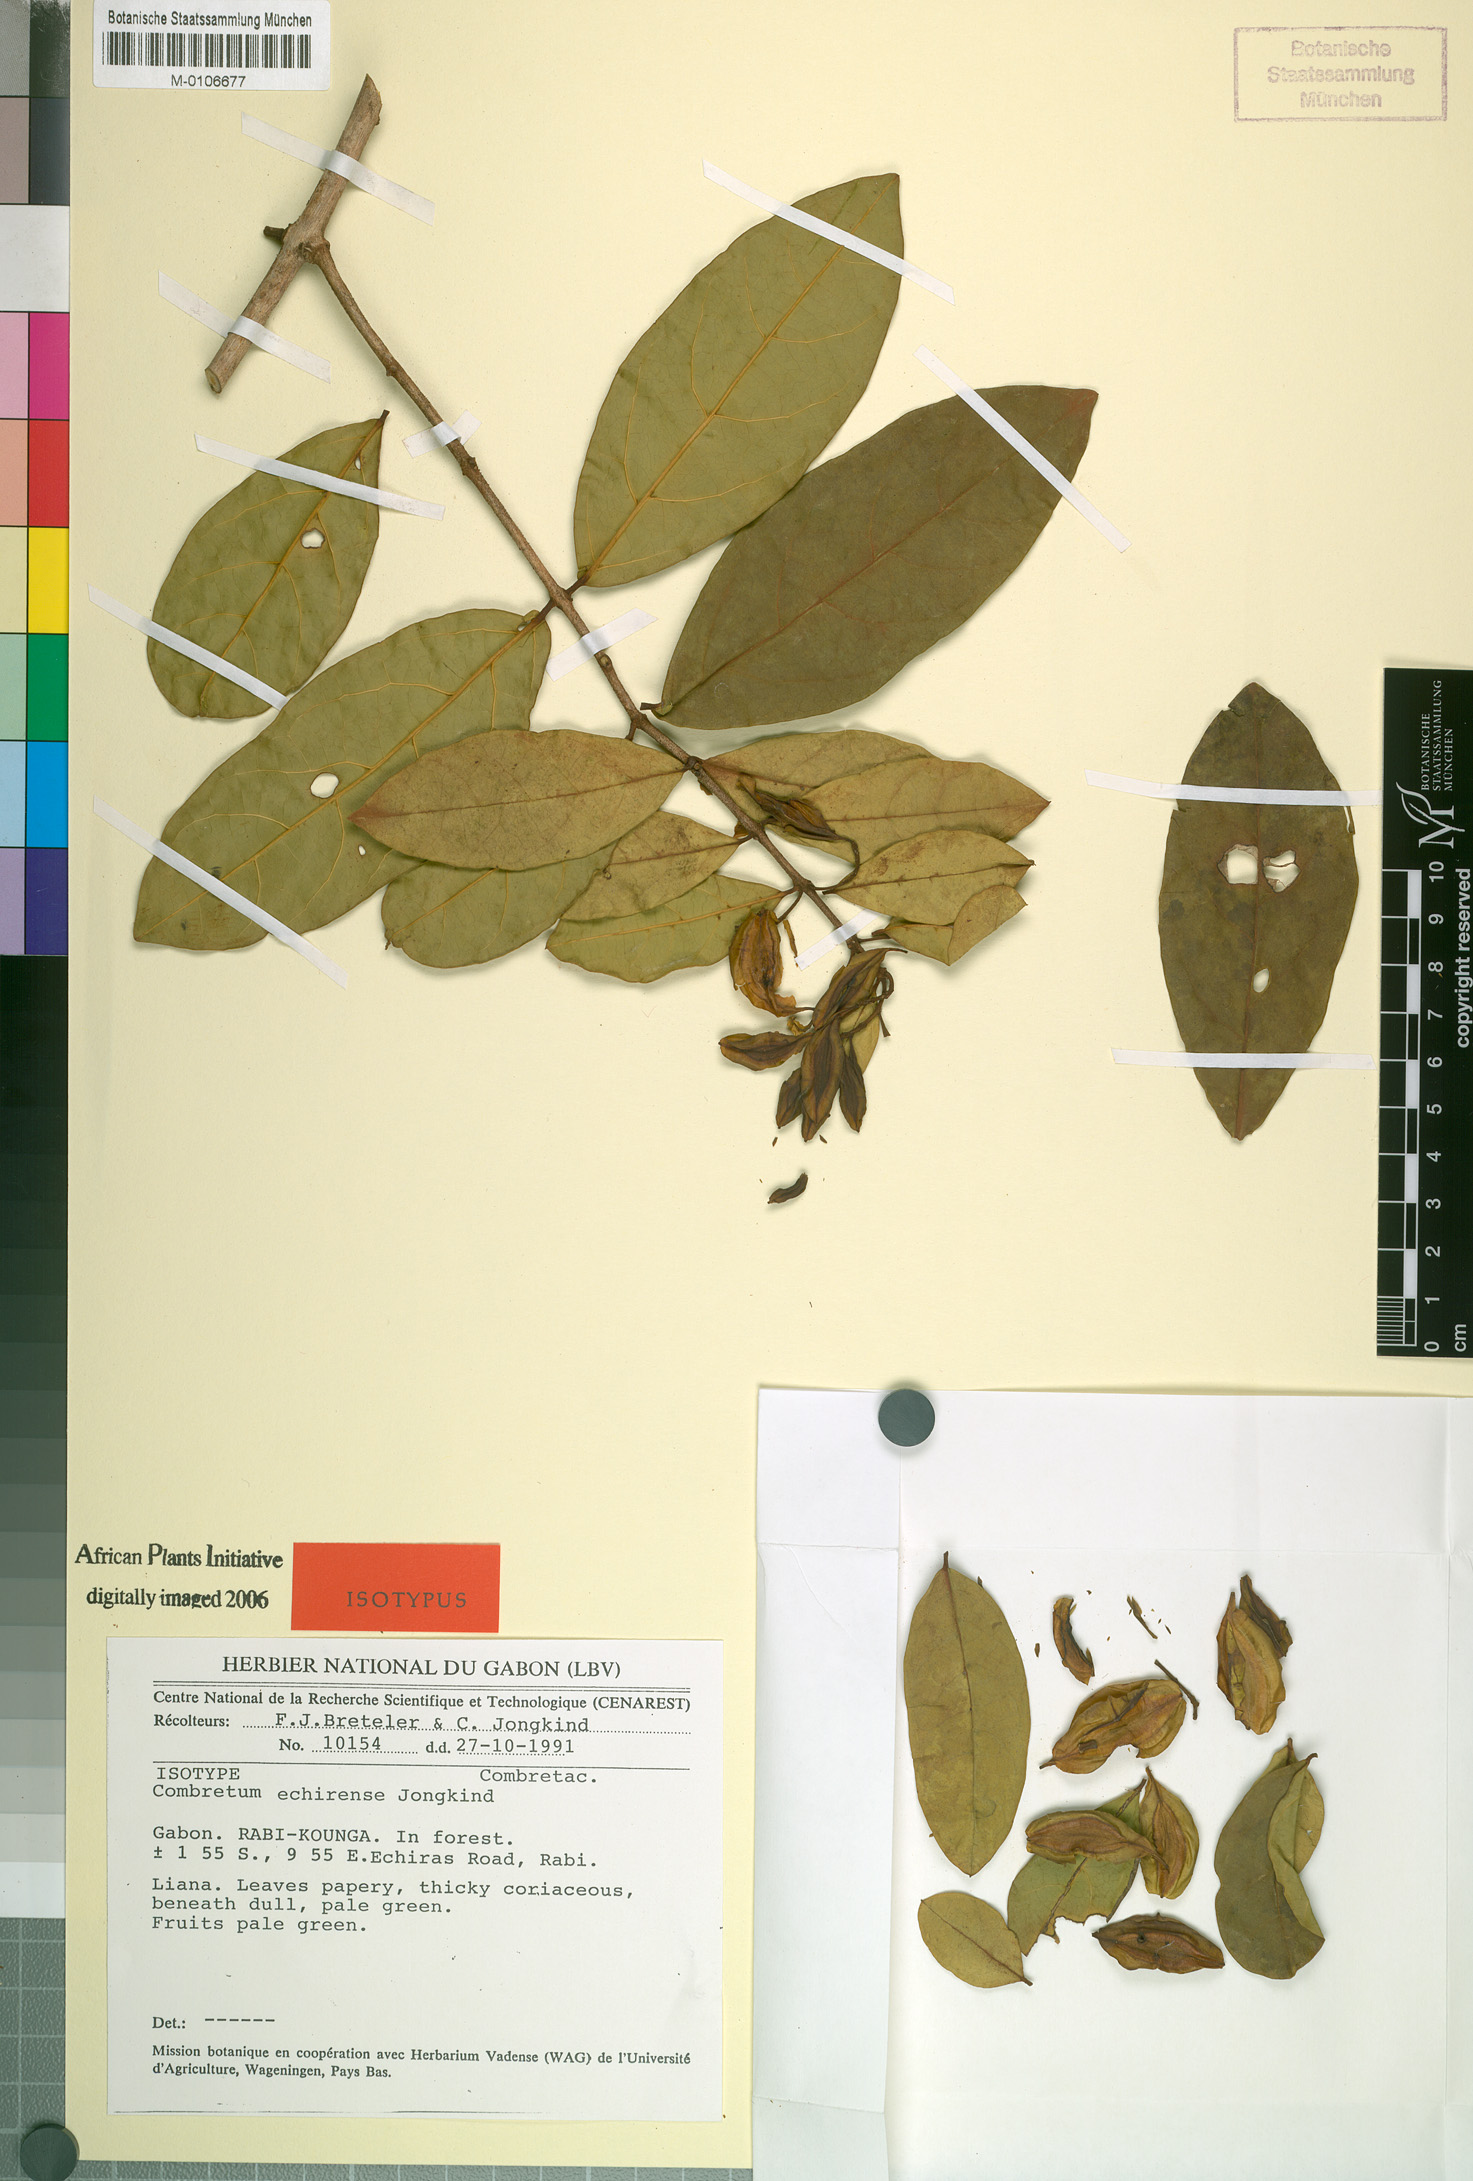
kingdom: Plantae
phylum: Tracheophyta
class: Magnoliopsida
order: Myrtales
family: Combretaceae
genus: Combretum
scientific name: Combretum echirense
